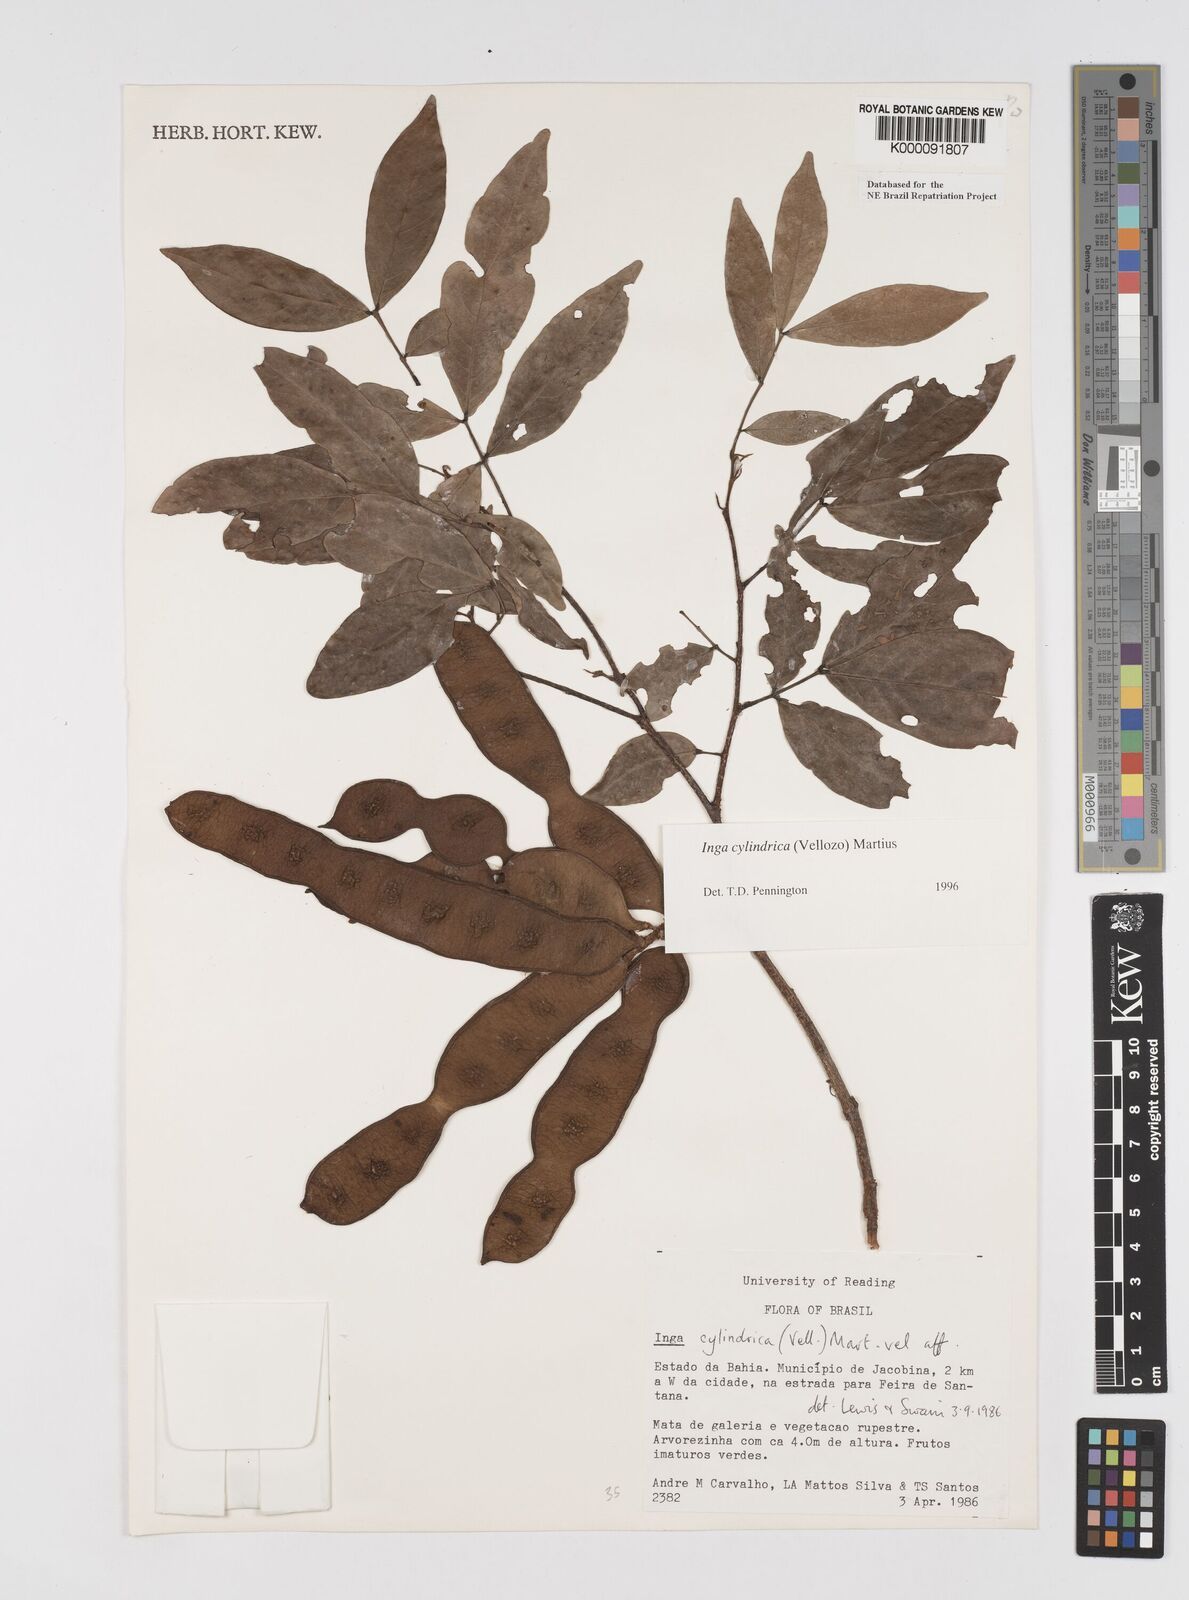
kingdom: Plantae
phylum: Tracheophyta
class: Magnoliopsida
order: Fabales
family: Fabaceae
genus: Inga
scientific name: Inga cylindrica
